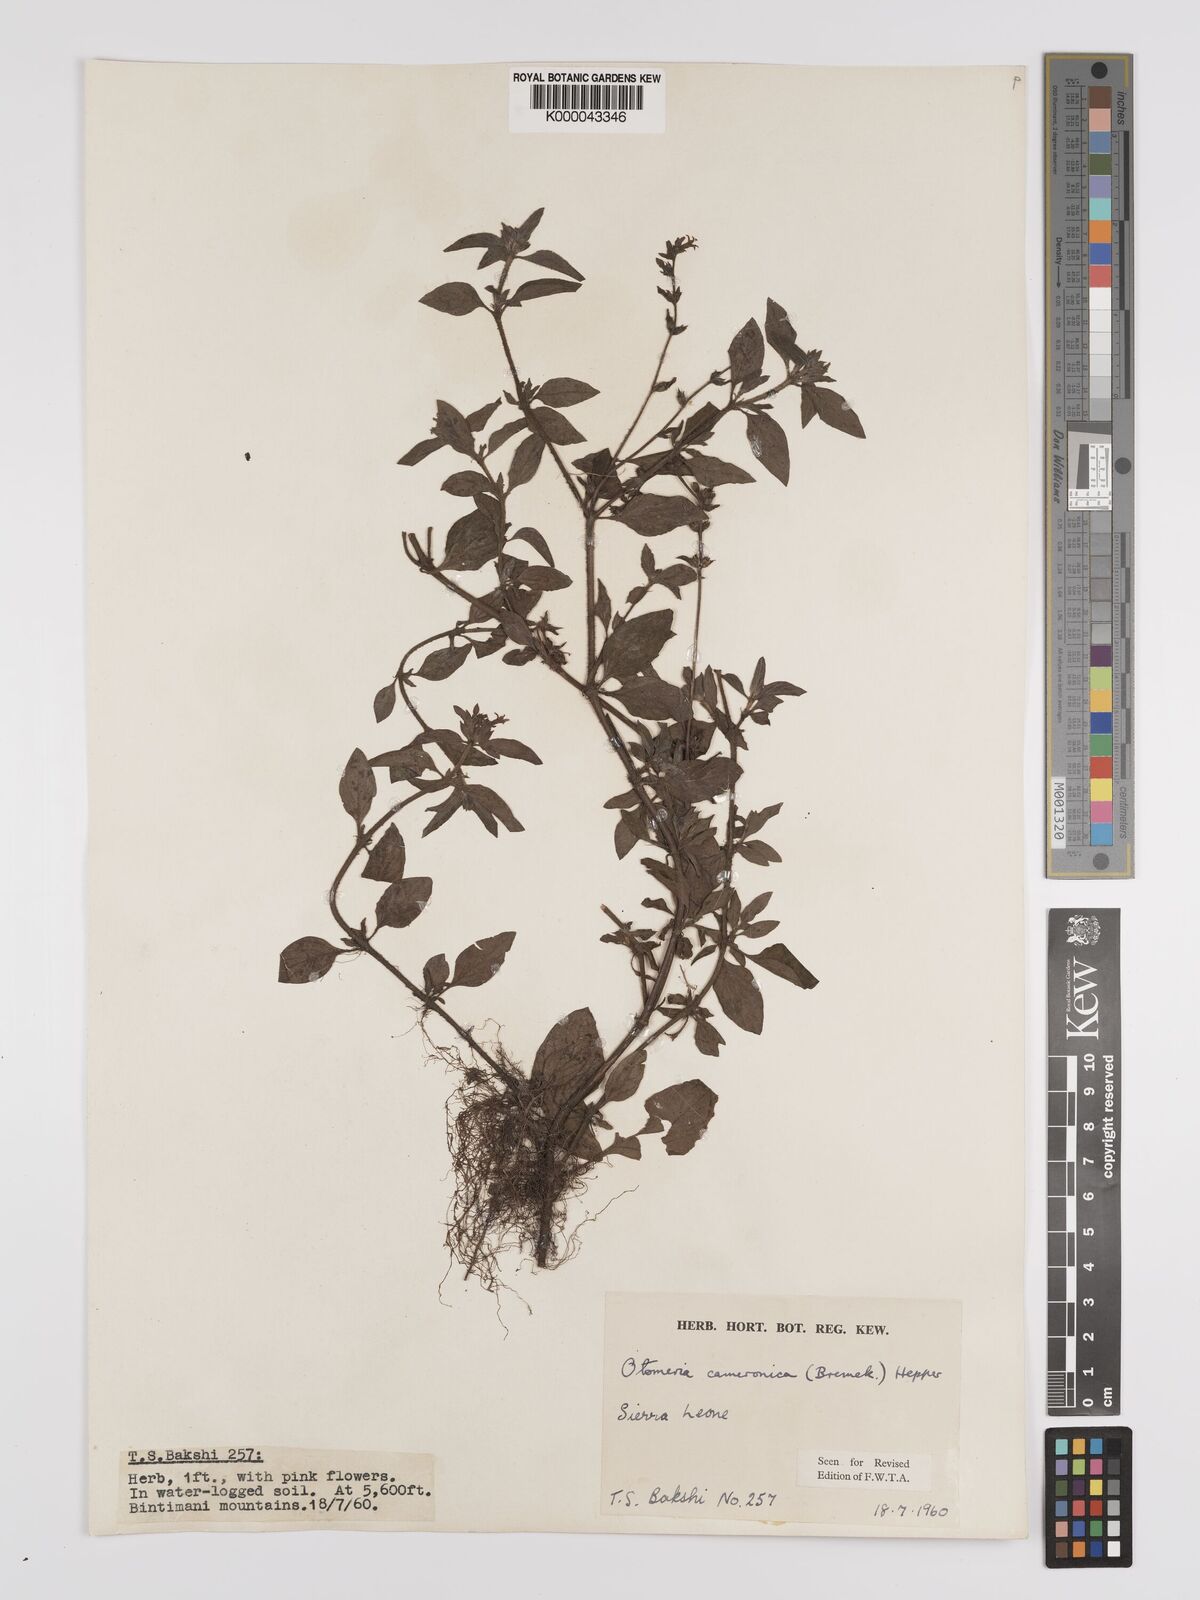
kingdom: Plantae
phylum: Tracheophyta
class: Magnoliopsida
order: Gentianales
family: Rubiaceae
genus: Otomeria
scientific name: Otomeria cameronica
